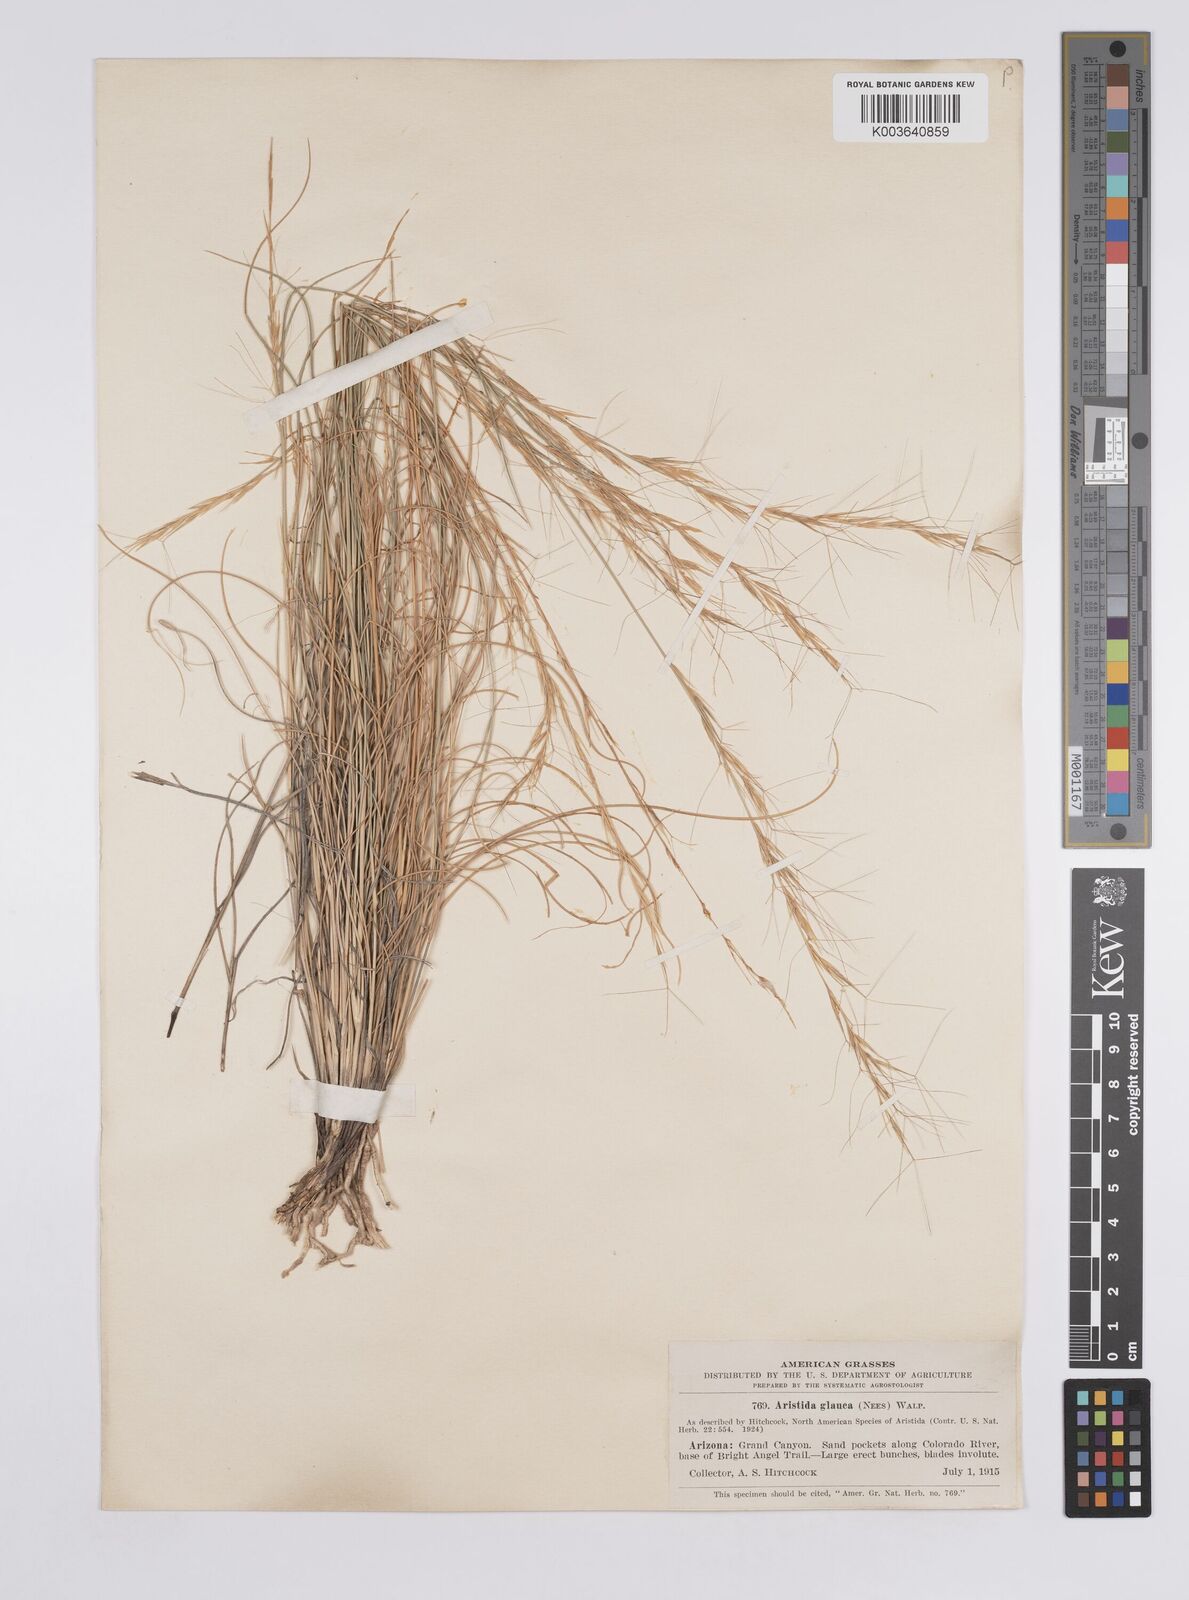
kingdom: Plantae
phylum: Tracheophyta
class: Liliopsida
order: Poales
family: Poaceae
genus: Aristida
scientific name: Aristida purpurea
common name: Purple threeawn
